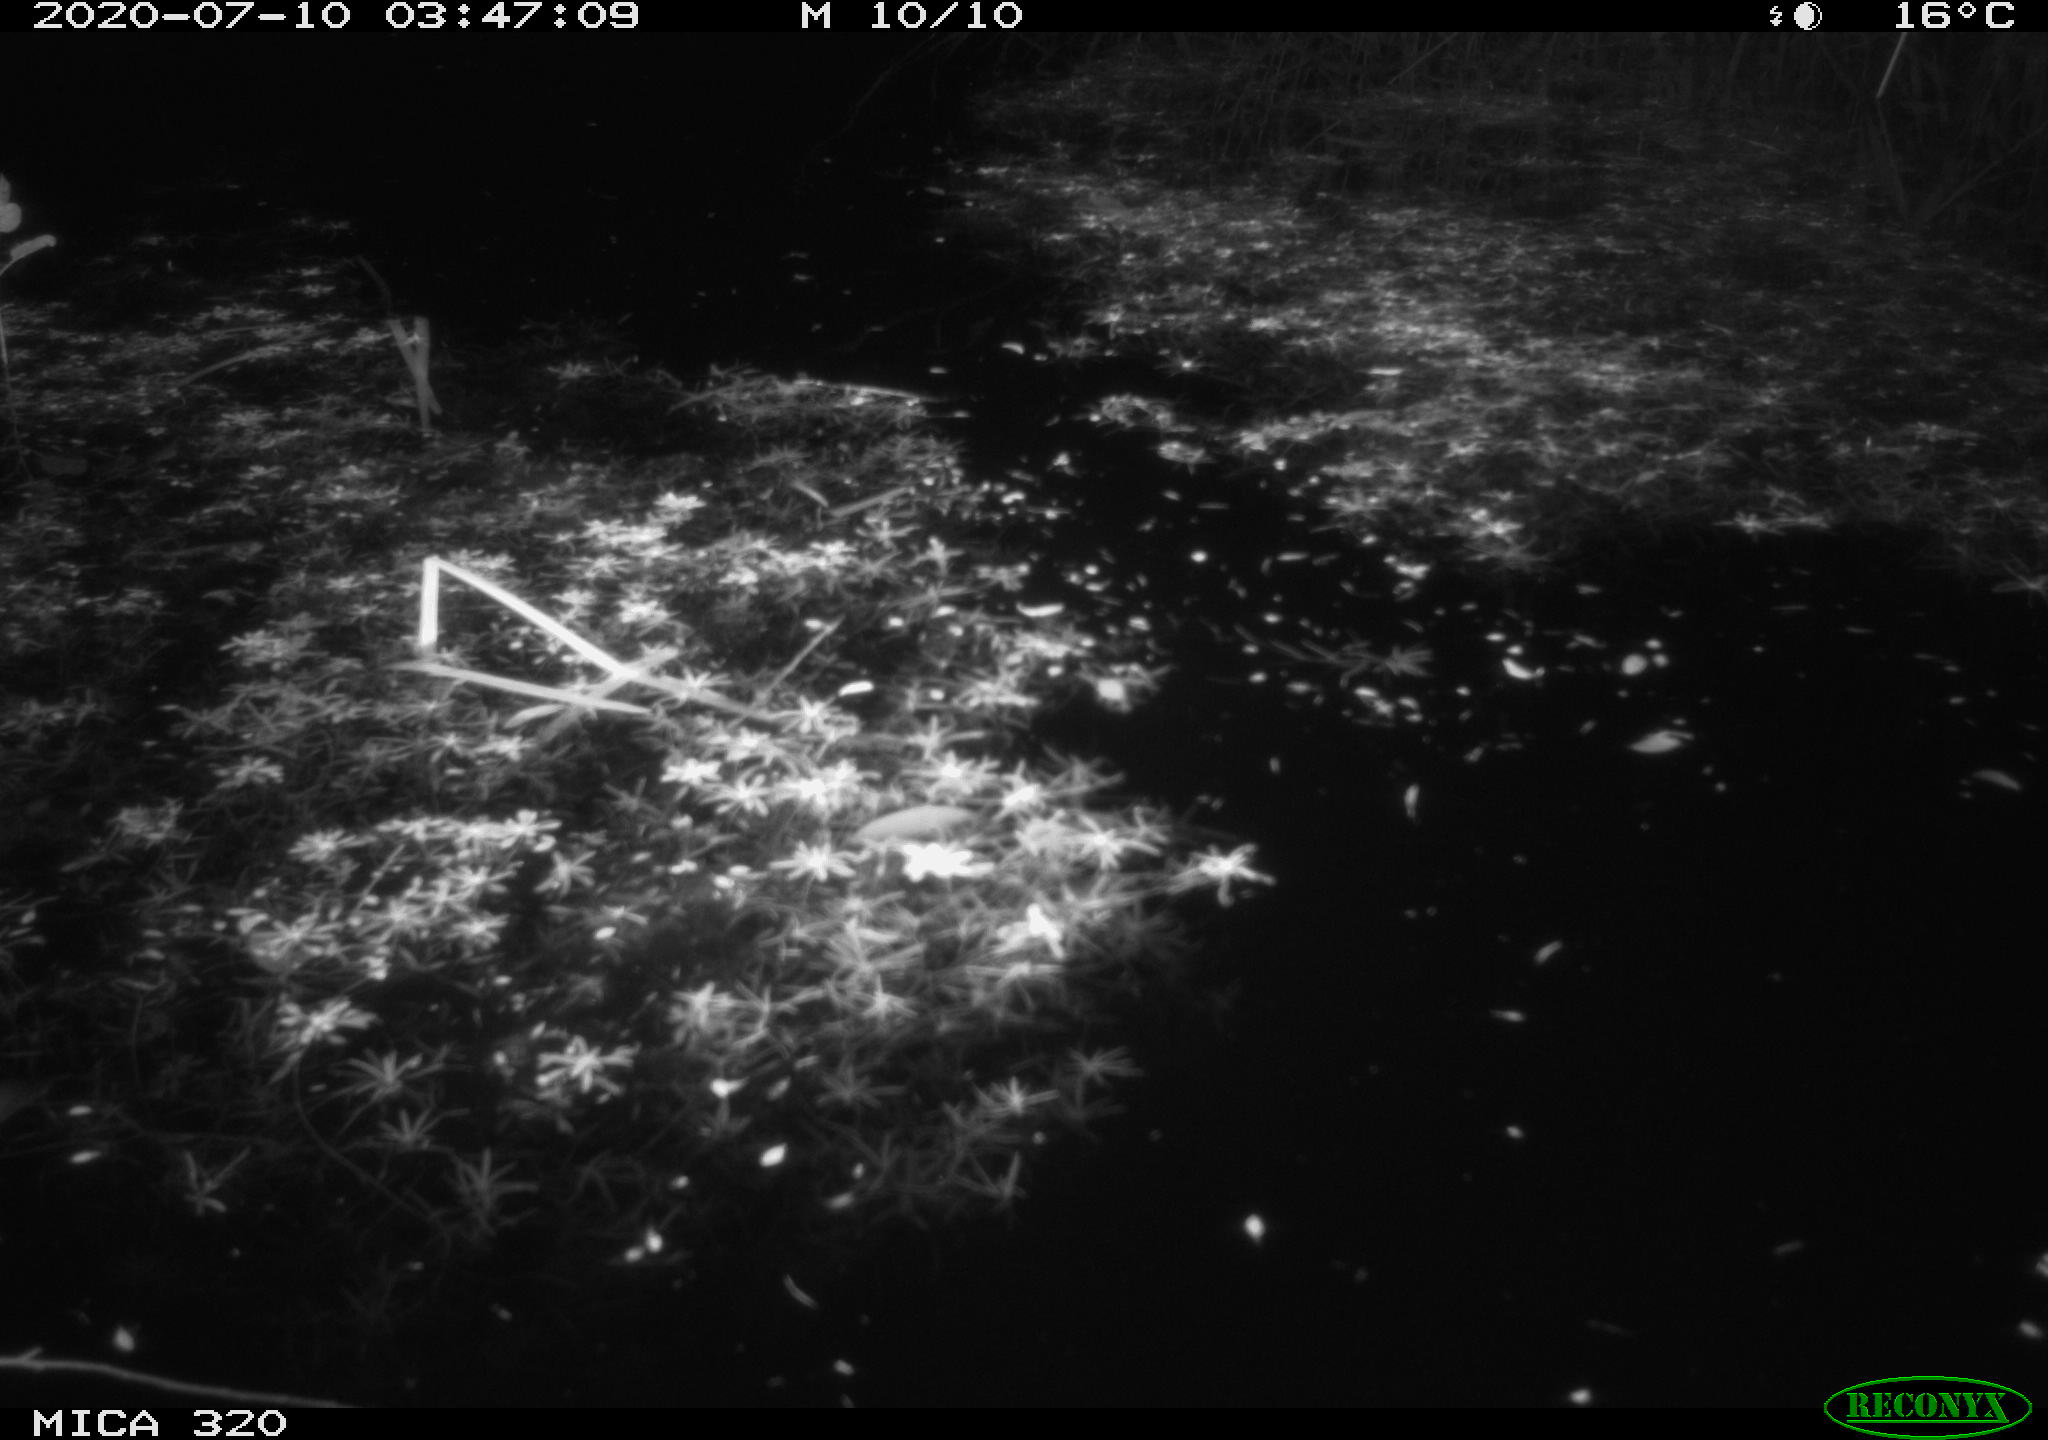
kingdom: Animalia
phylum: Chordata
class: Aves
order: Anseriformes
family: Anatidae
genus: Anas
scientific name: Anas platyrhynchos
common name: Mallard
